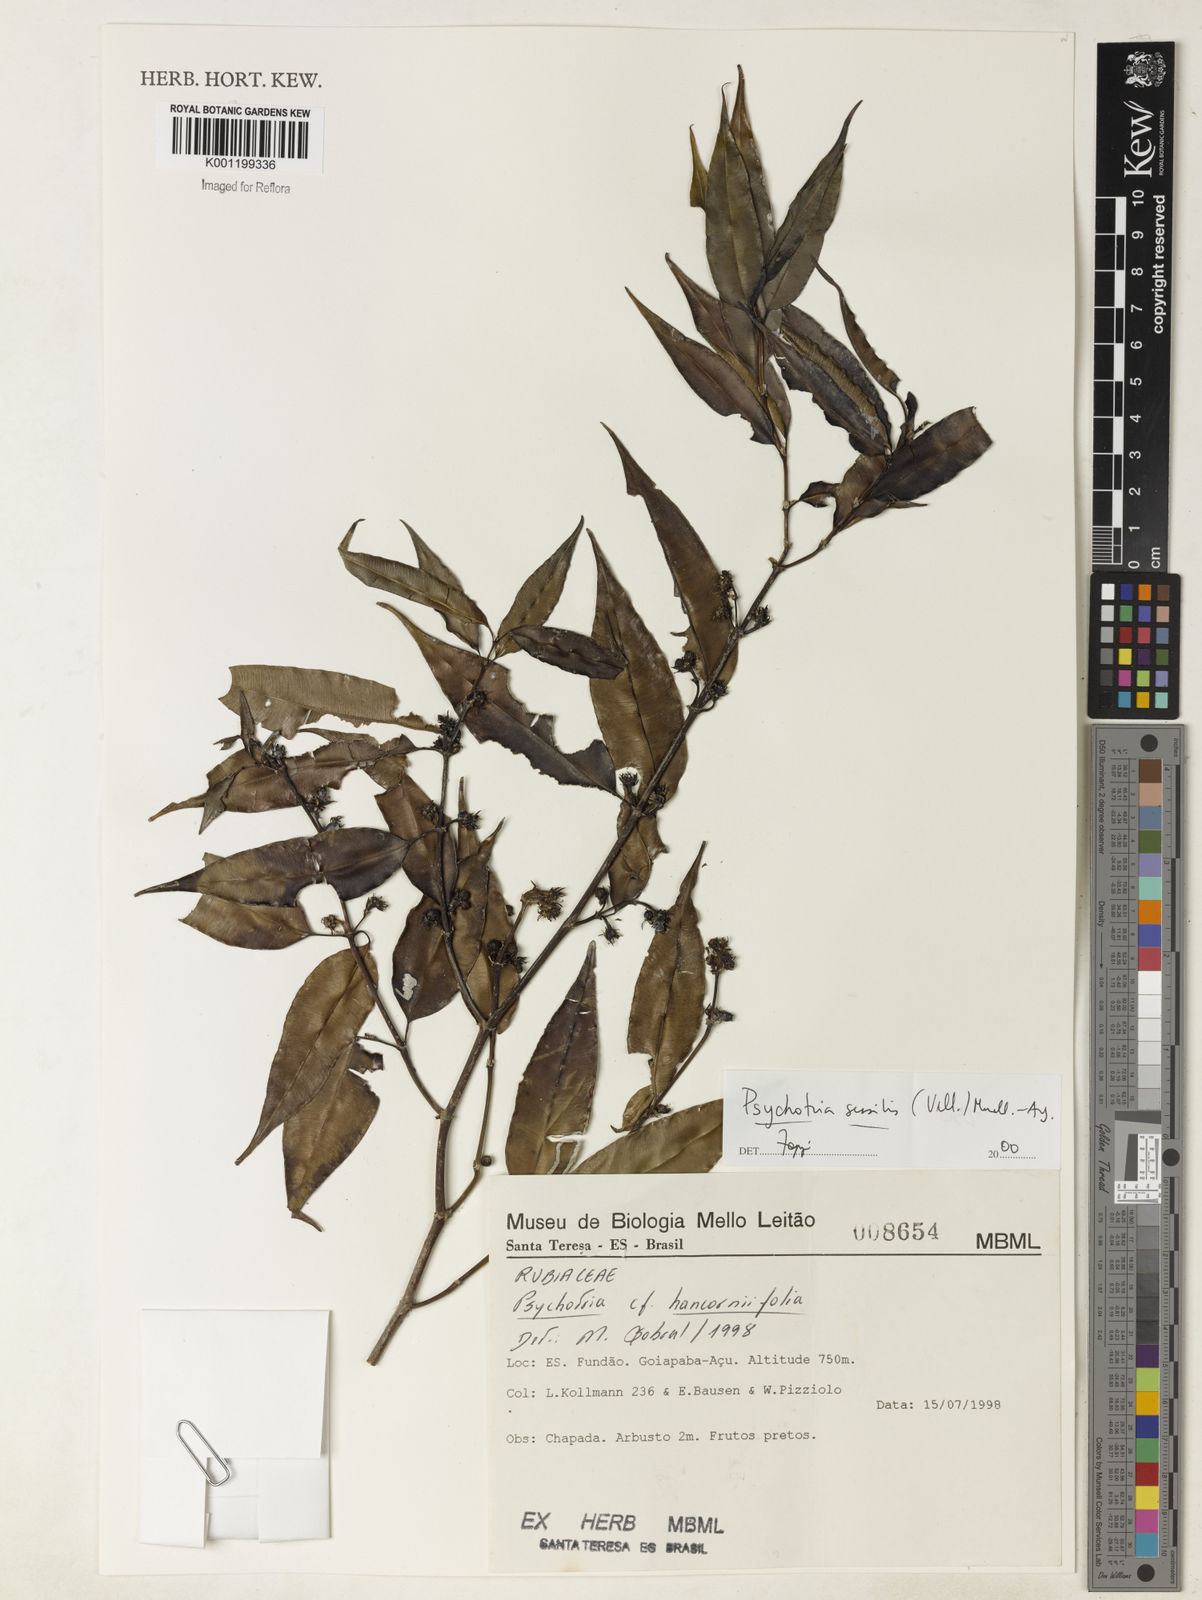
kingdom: Plantae
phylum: Tracheophyta
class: Magnoliopsida
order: Gentianales
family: Rubiaceae
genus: Rudgea
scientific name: Rudgea sessilis
